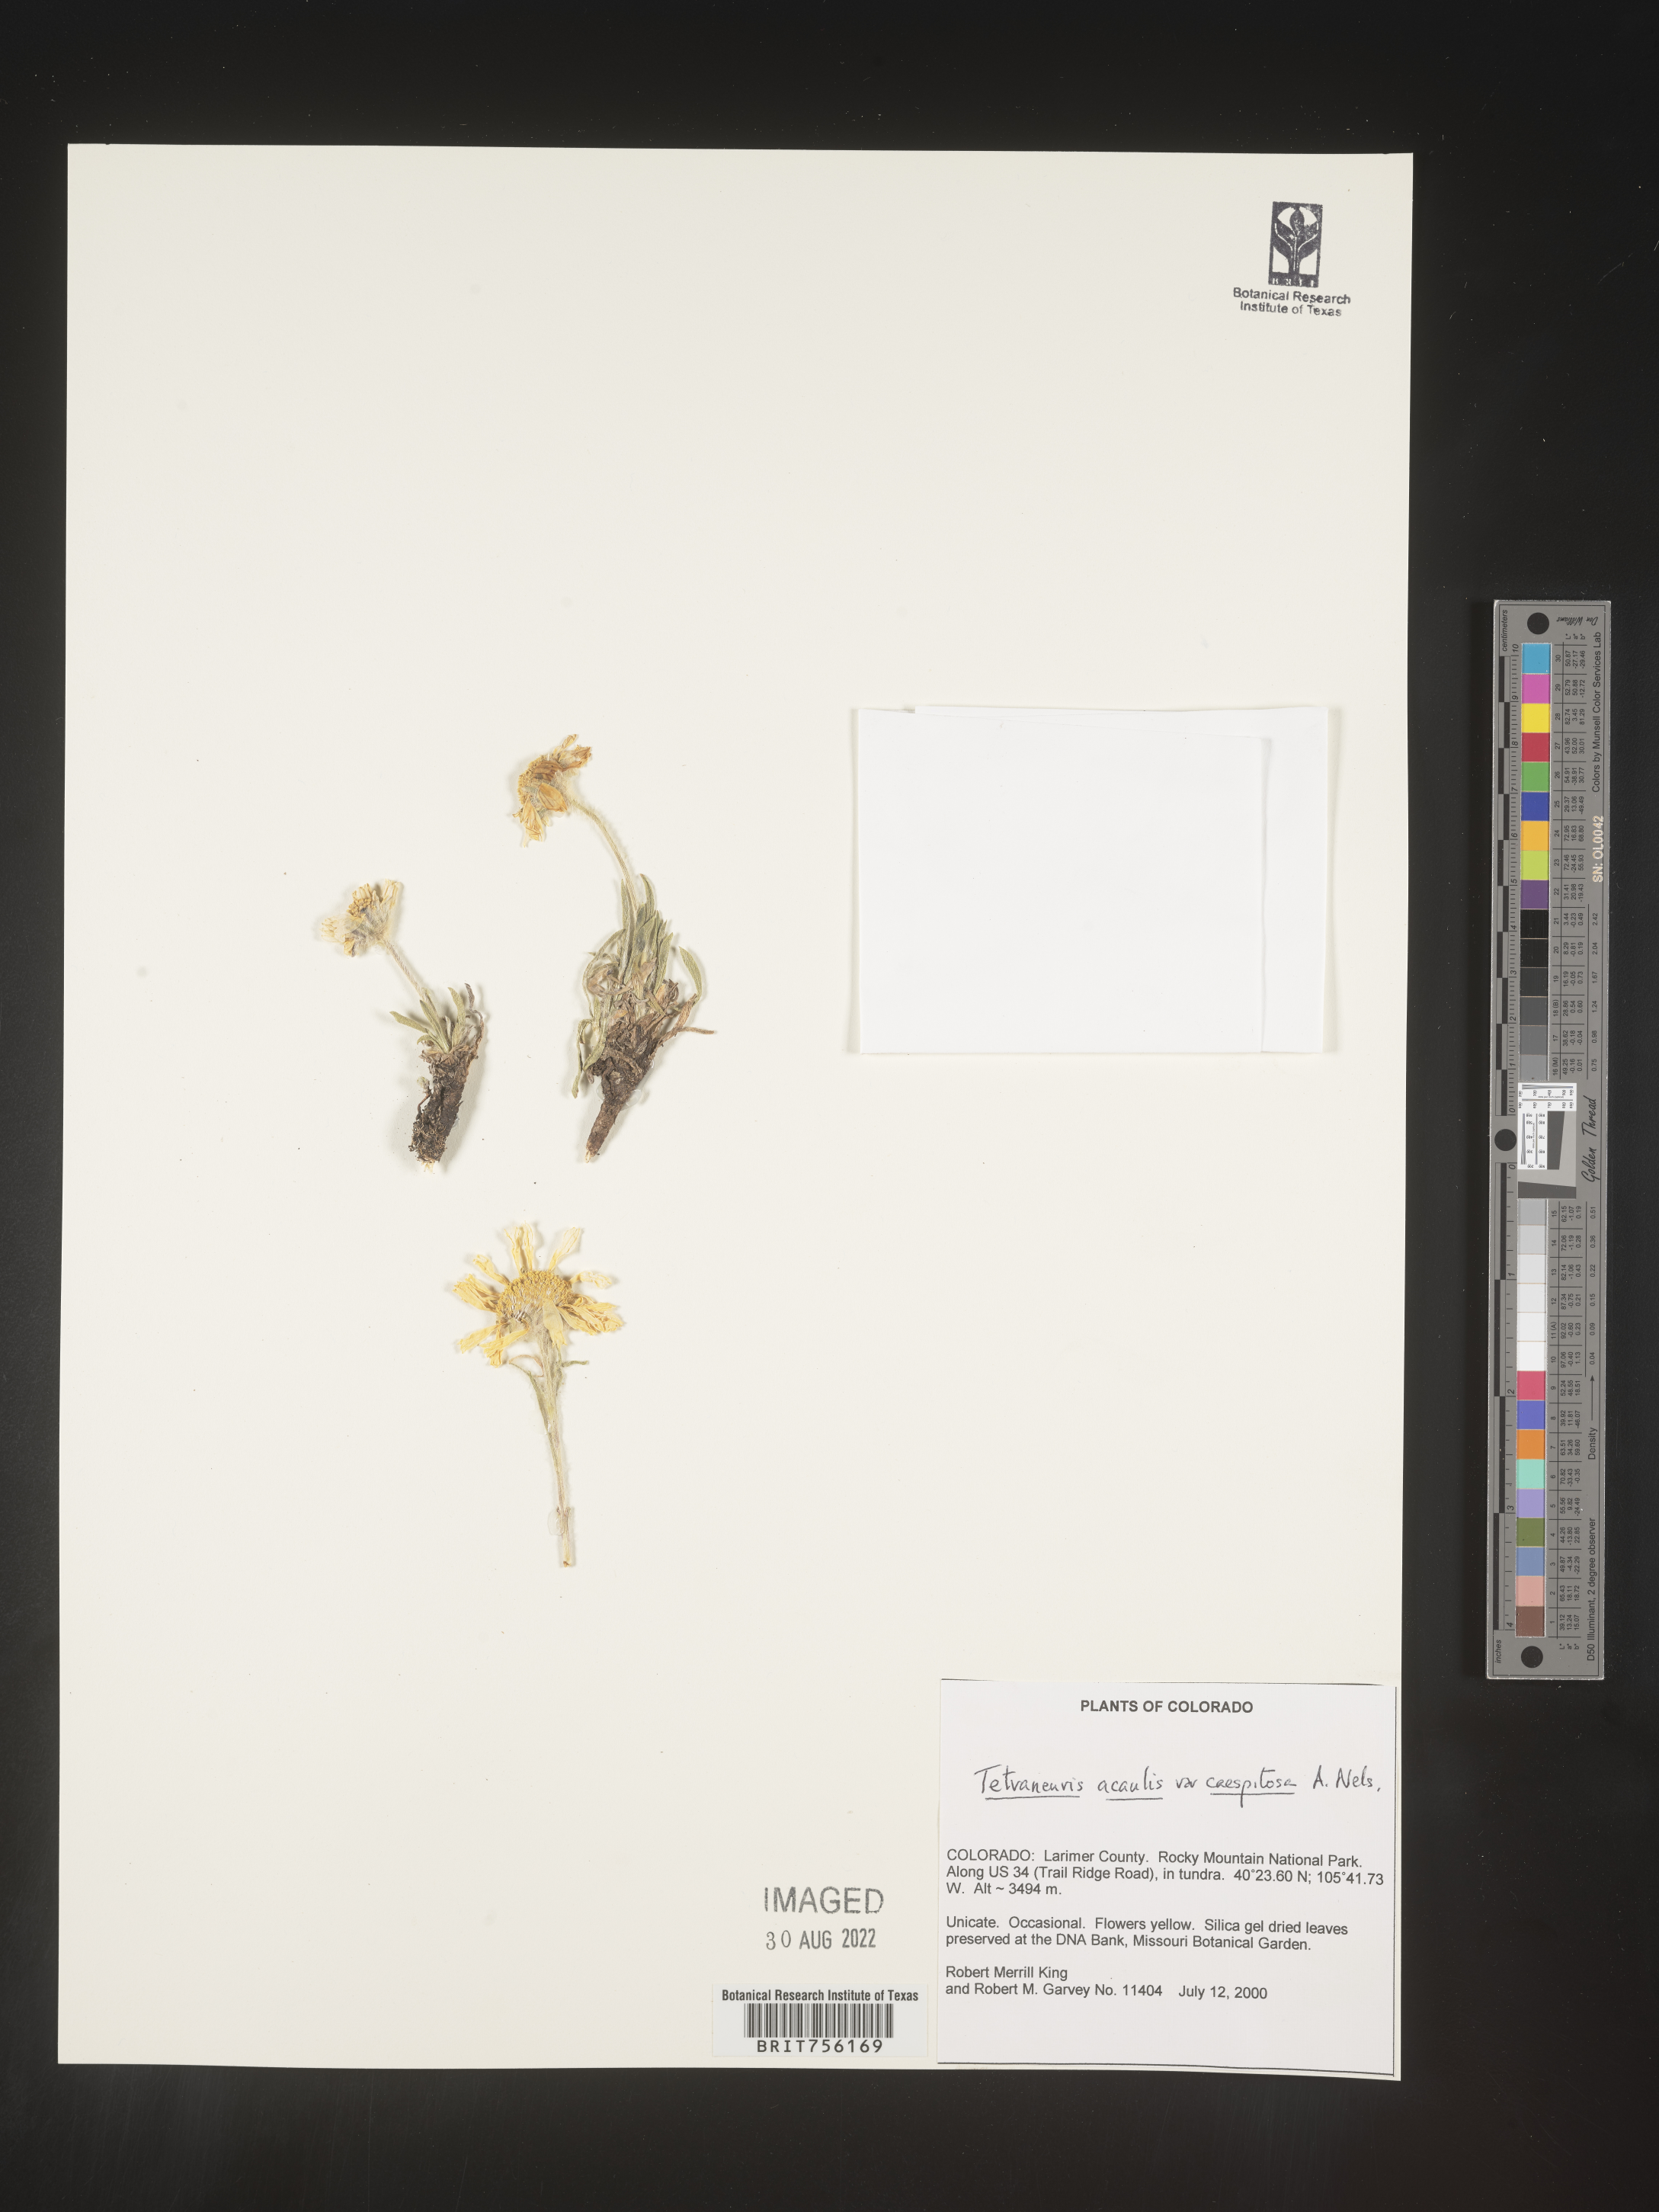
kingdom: Plantae
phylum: Tracheophyta
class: Magnoliopsida
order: Asterales
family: Asteraceae
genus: Tetraneuris
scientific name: Tetraneuris acaulis
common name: Butte marigold
